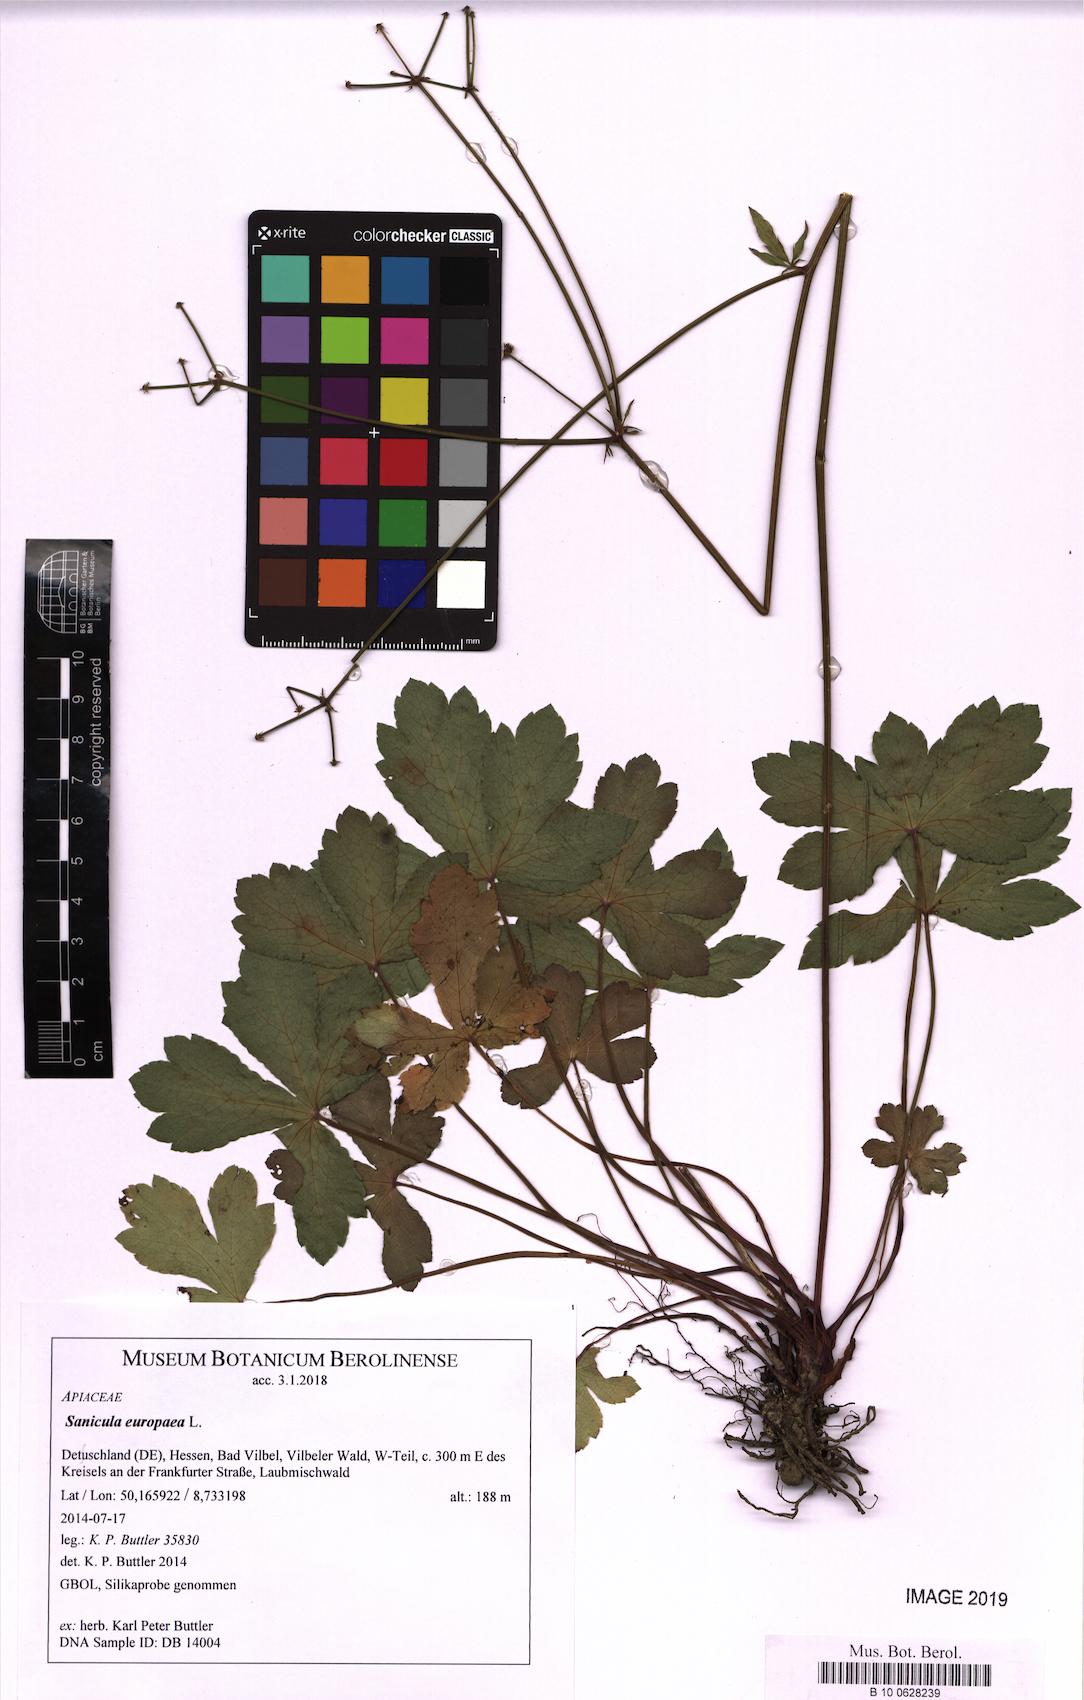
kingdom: Plantae
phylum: Tracheophyta
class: Magnoliopsida
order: Apiales
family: Apiaceae
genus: Sanicula
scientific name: Sanicula europaea
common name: Sanicle
